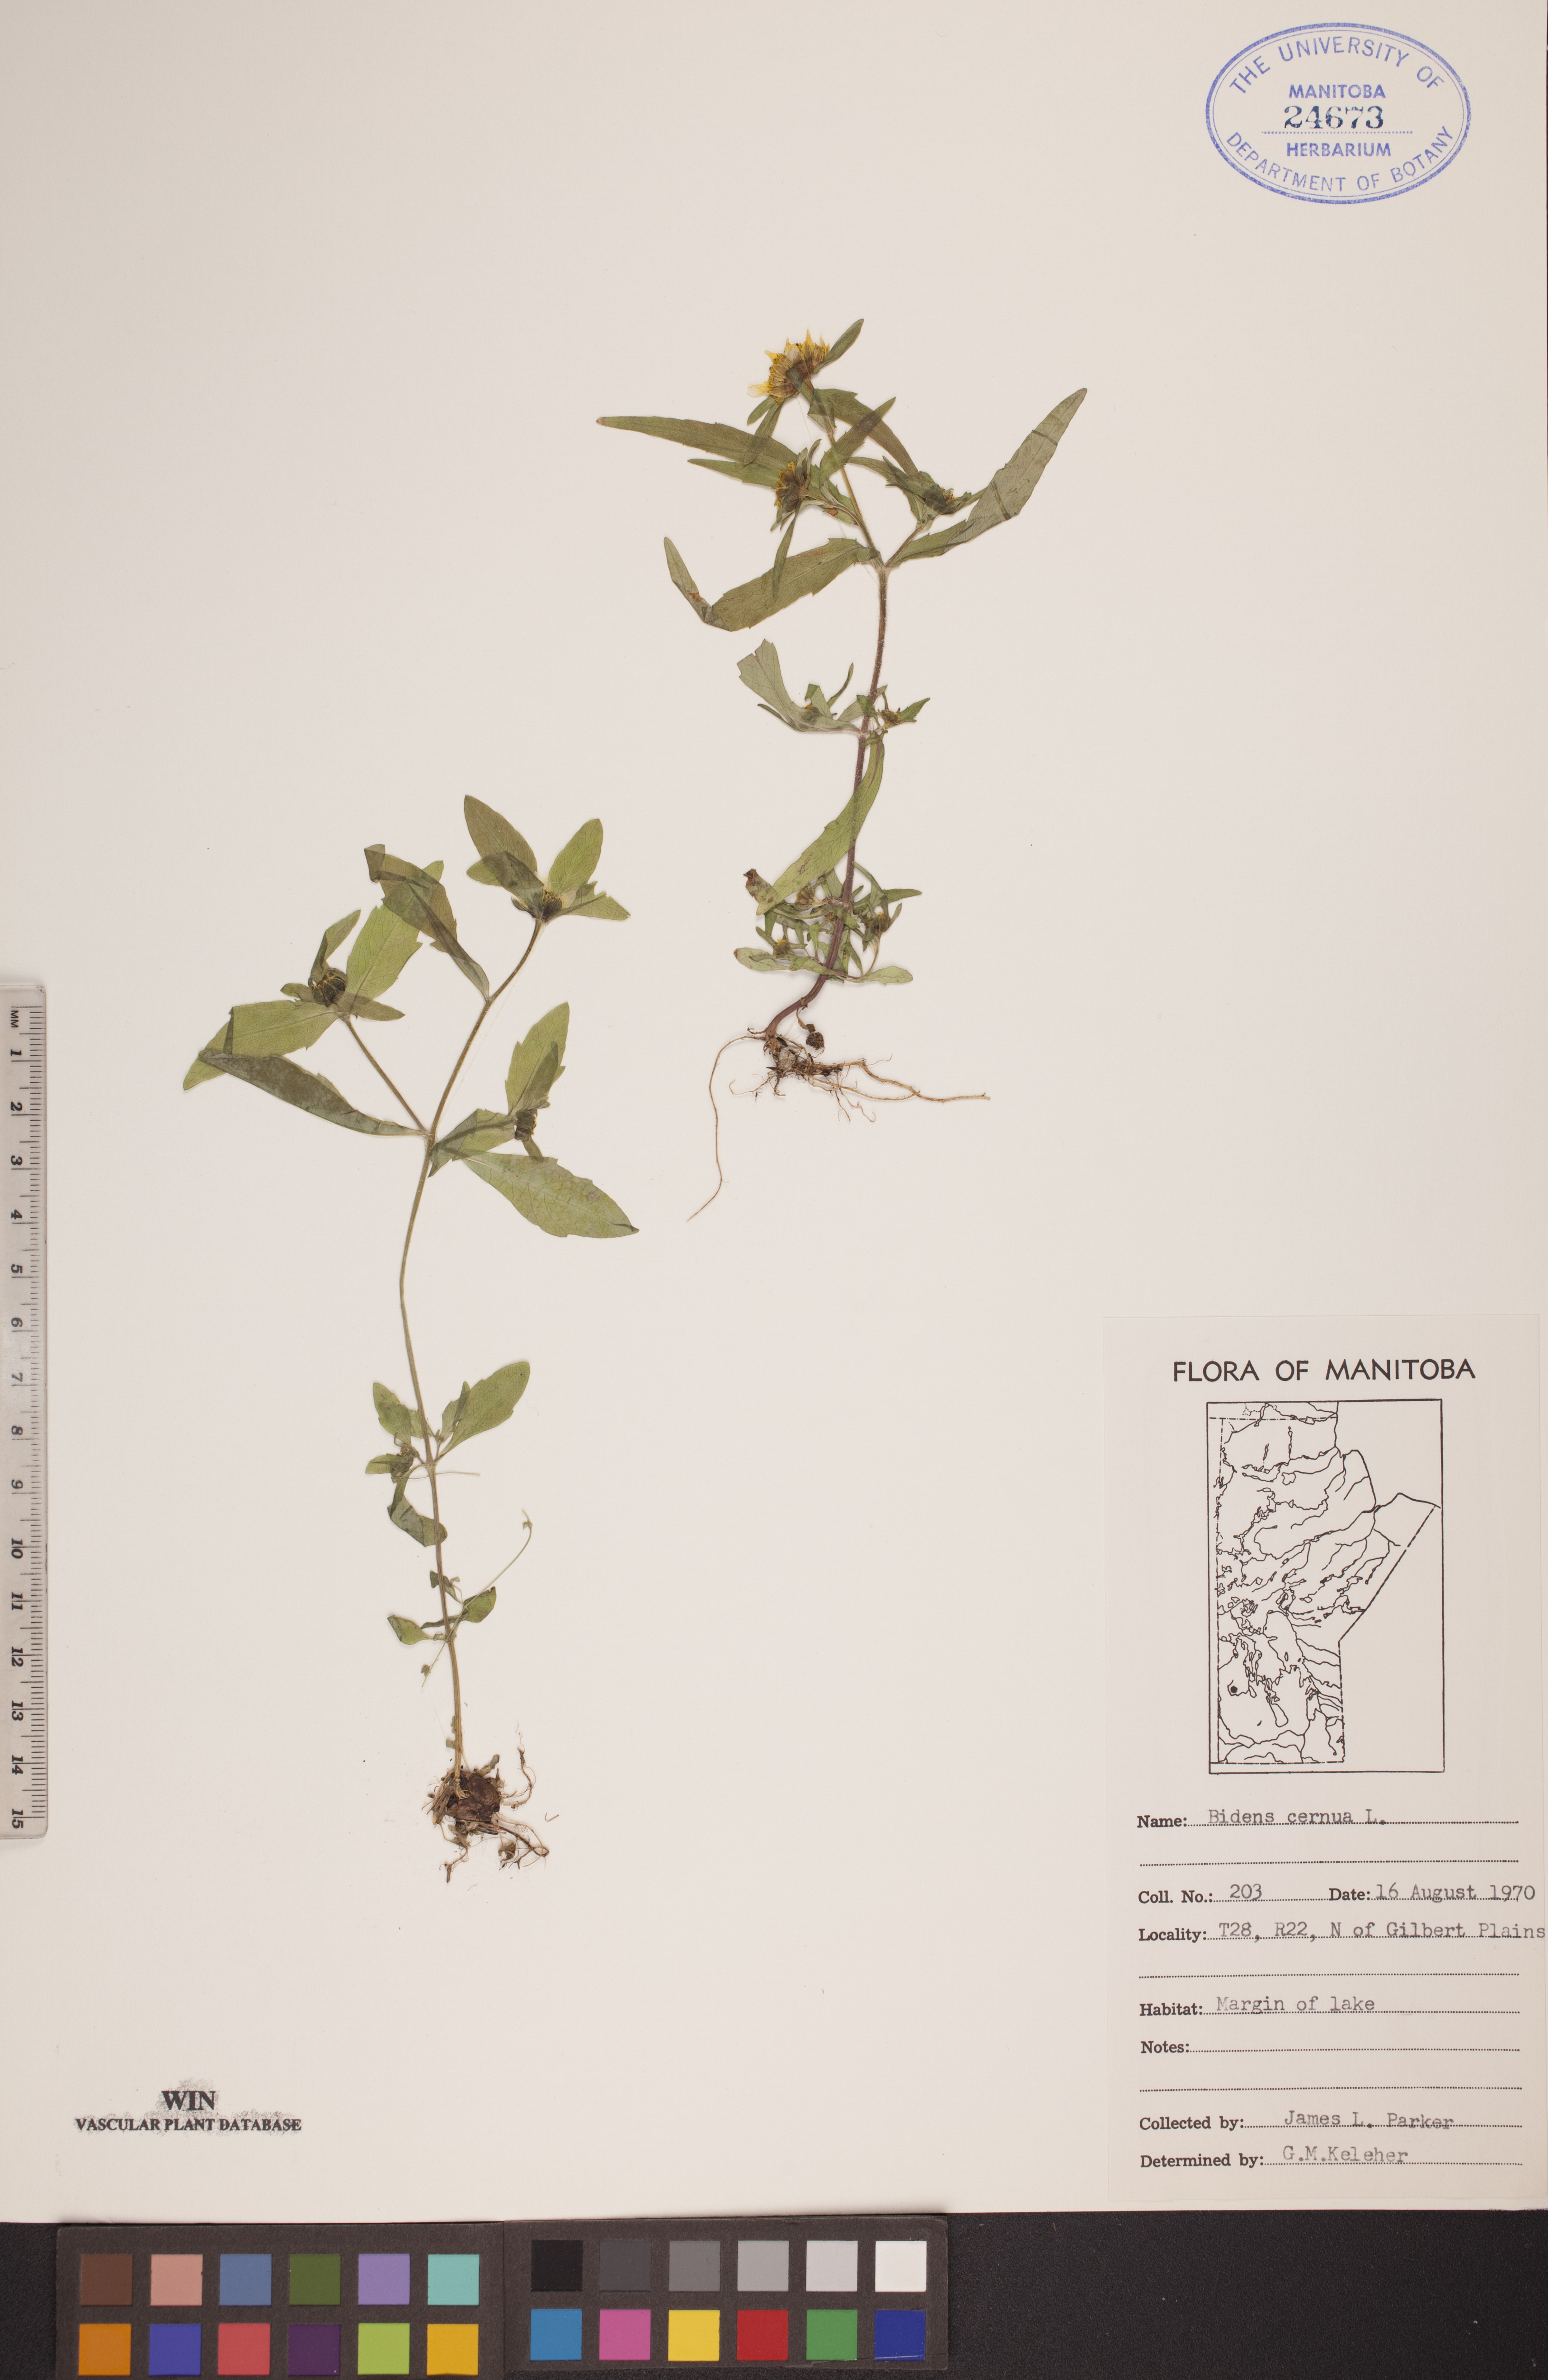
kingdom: Plantae
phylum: Tracheophyta
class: Magnoliopsida
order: Asterales
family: Asteraceae
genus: Bidens
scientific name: Bidens cernua
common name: Nodding bur-marigold
